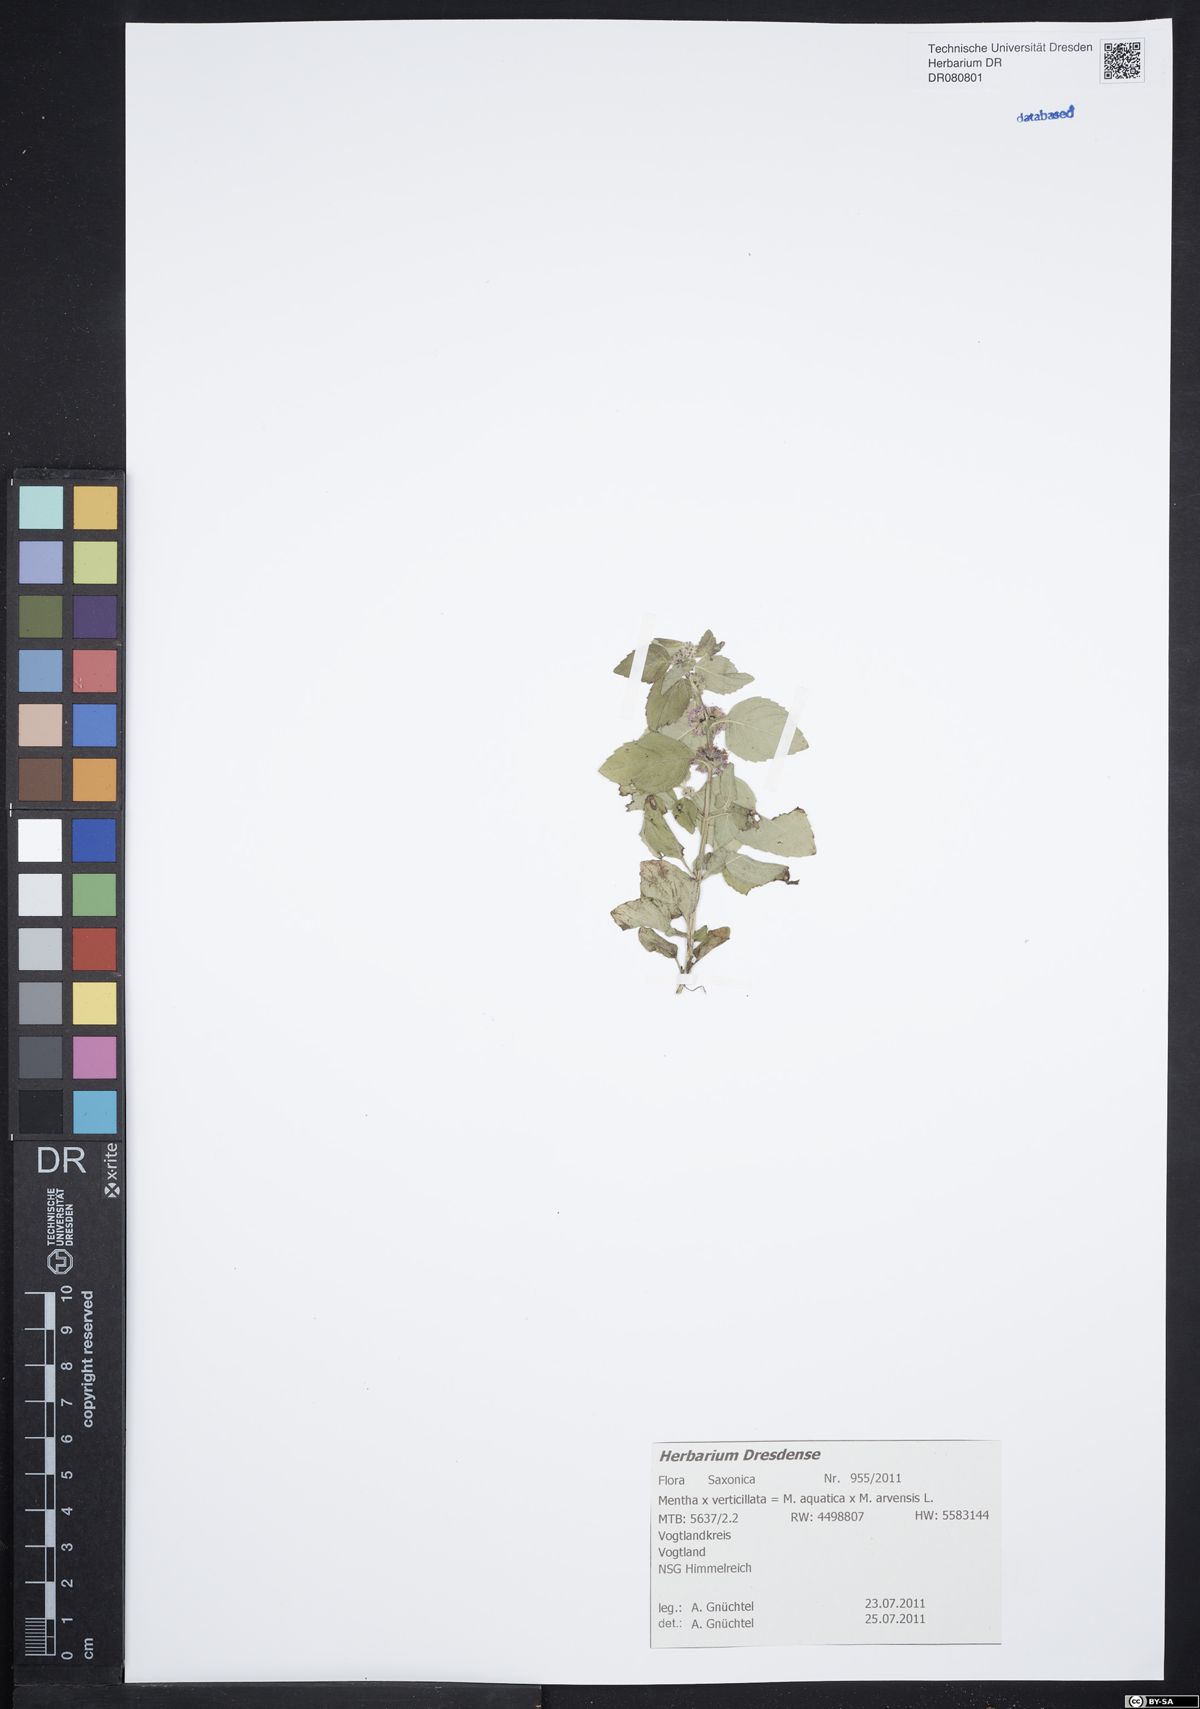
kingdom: Plantae
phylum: Tracheophyta
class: Magnoliopsida
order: Lamiales
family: Lamiaceae
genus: Mentha
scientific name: Mentha verticillata
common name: Mint
